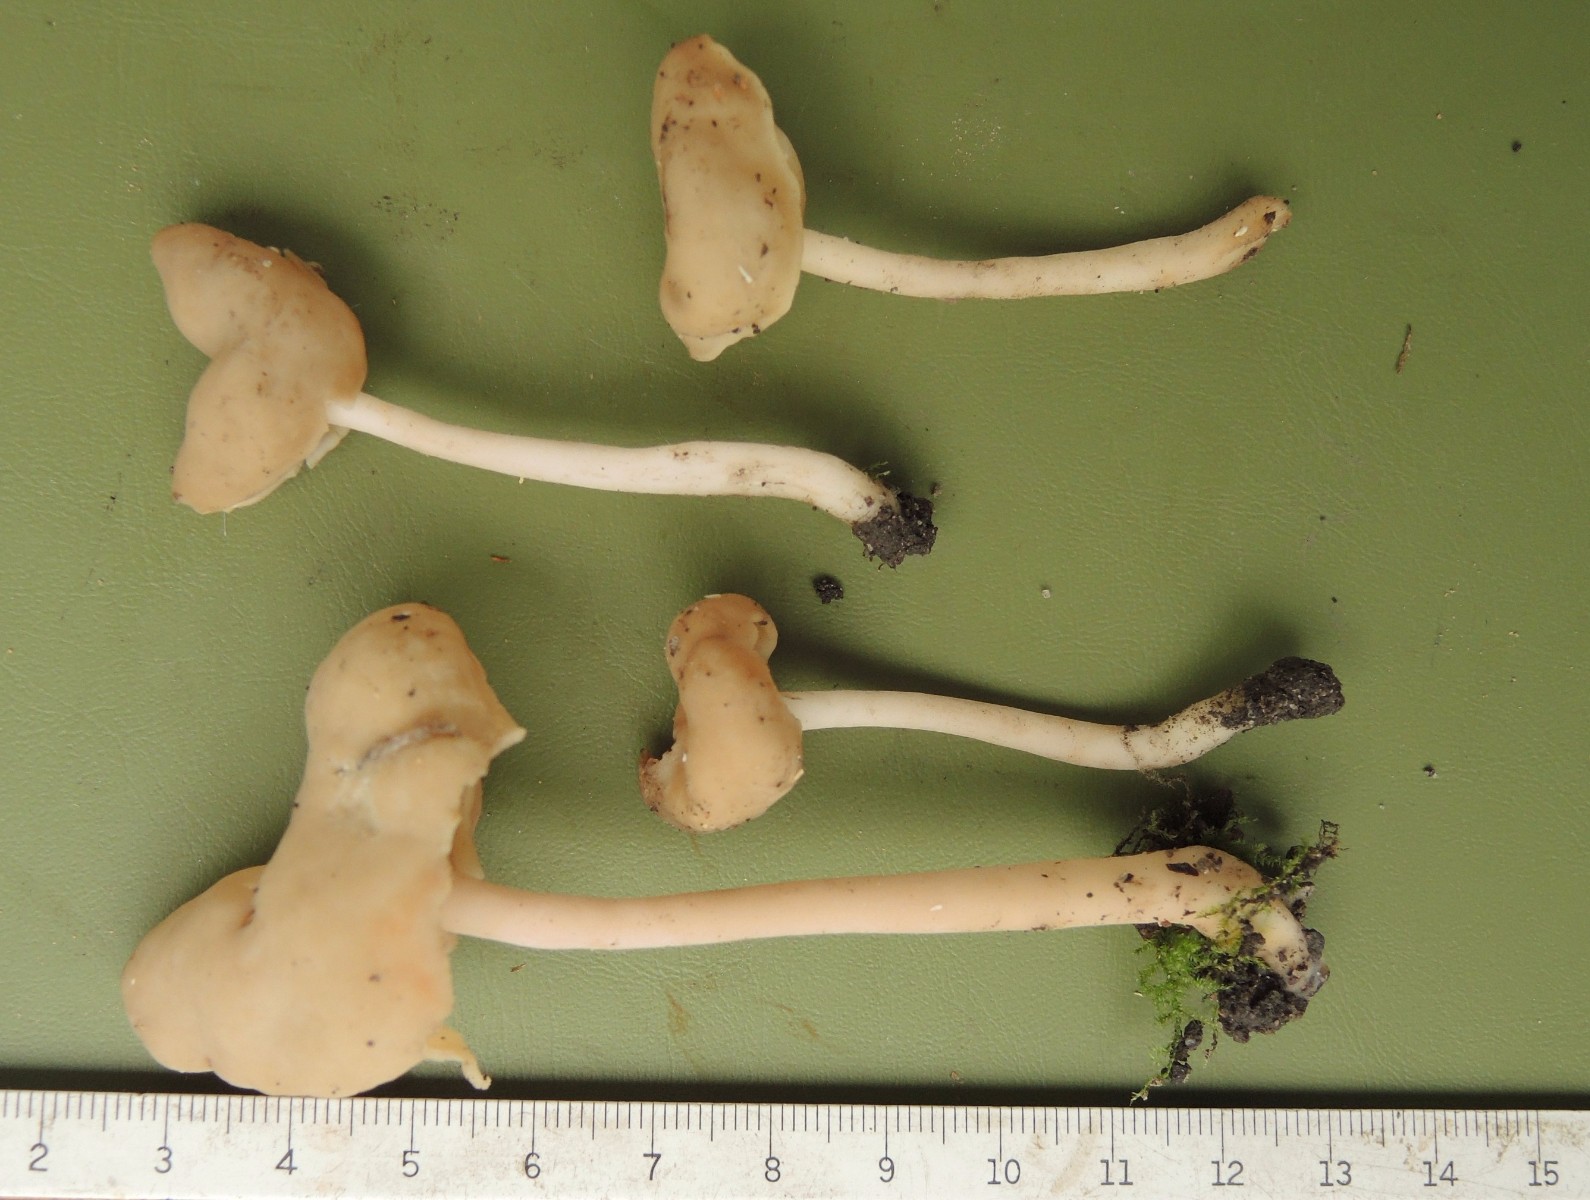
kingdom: Fungi
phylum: Ascomycota
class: Pezizomycetes
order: Pezizales
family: Helvellaceae
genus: Helvella
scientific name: Helvella elastica
